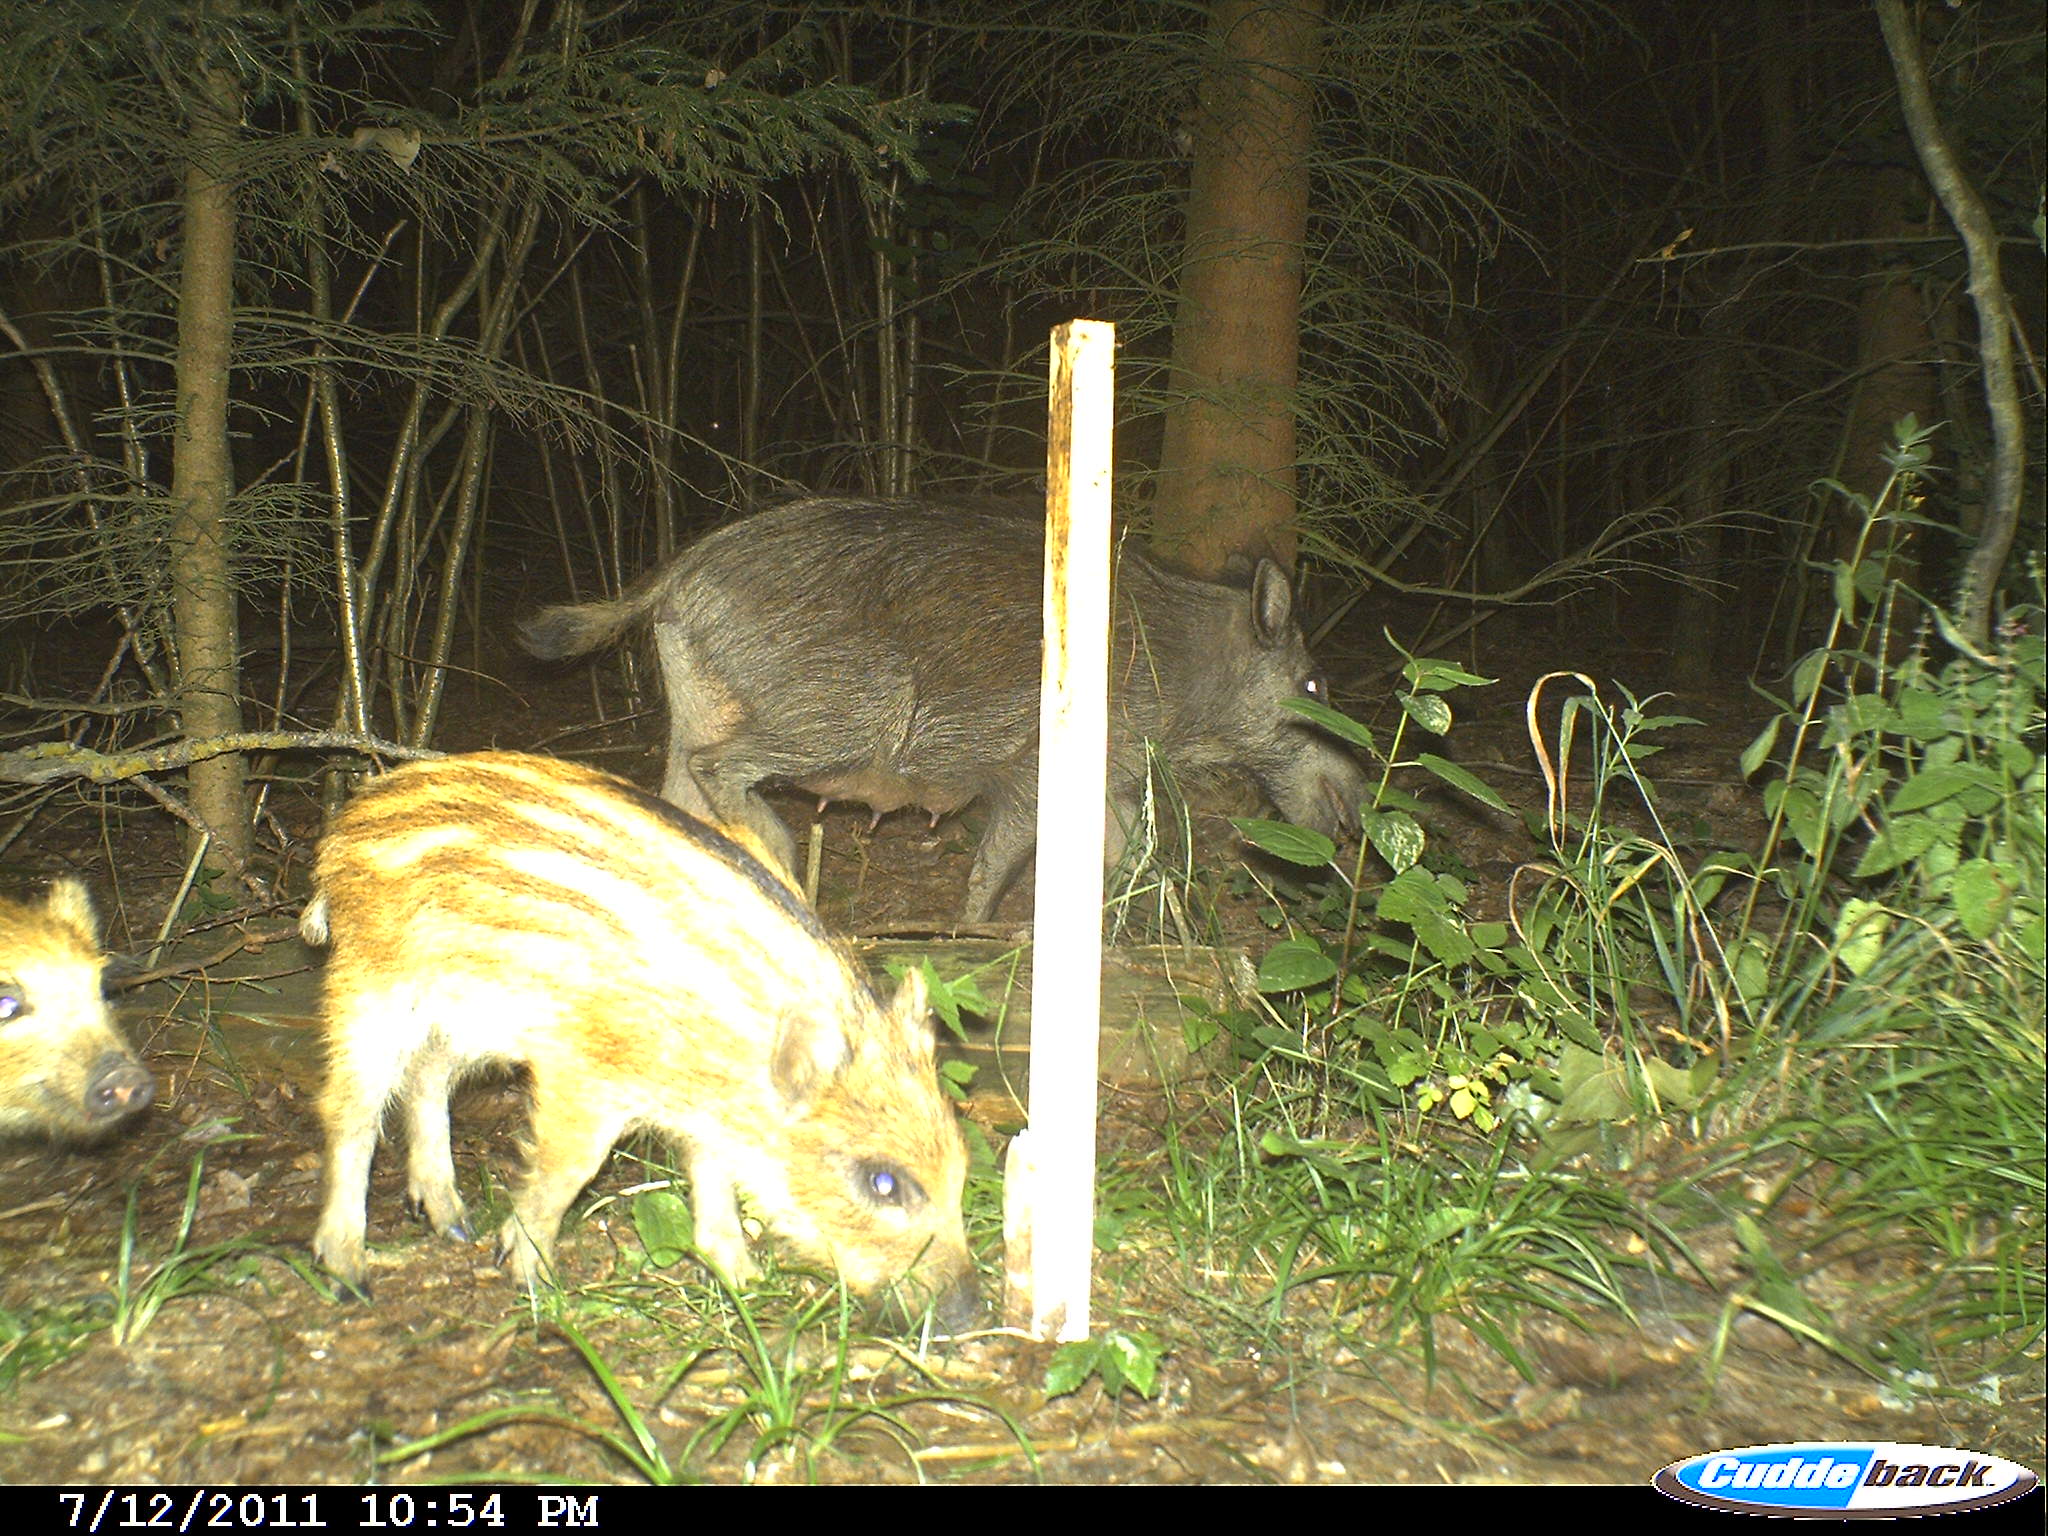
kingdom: Animalia
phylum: Chordata
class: Mammalia
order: Artiodactyla
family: Suidae
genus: Sus
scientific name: Sus scrofa
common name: Wild boar
